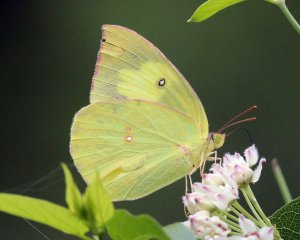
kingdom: Animalia
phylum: Arthropoda
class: Insecta
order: Lepidoptera
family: Pieridae
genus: Zerene
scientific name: Zerene cesonia
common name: Southern Dogface
